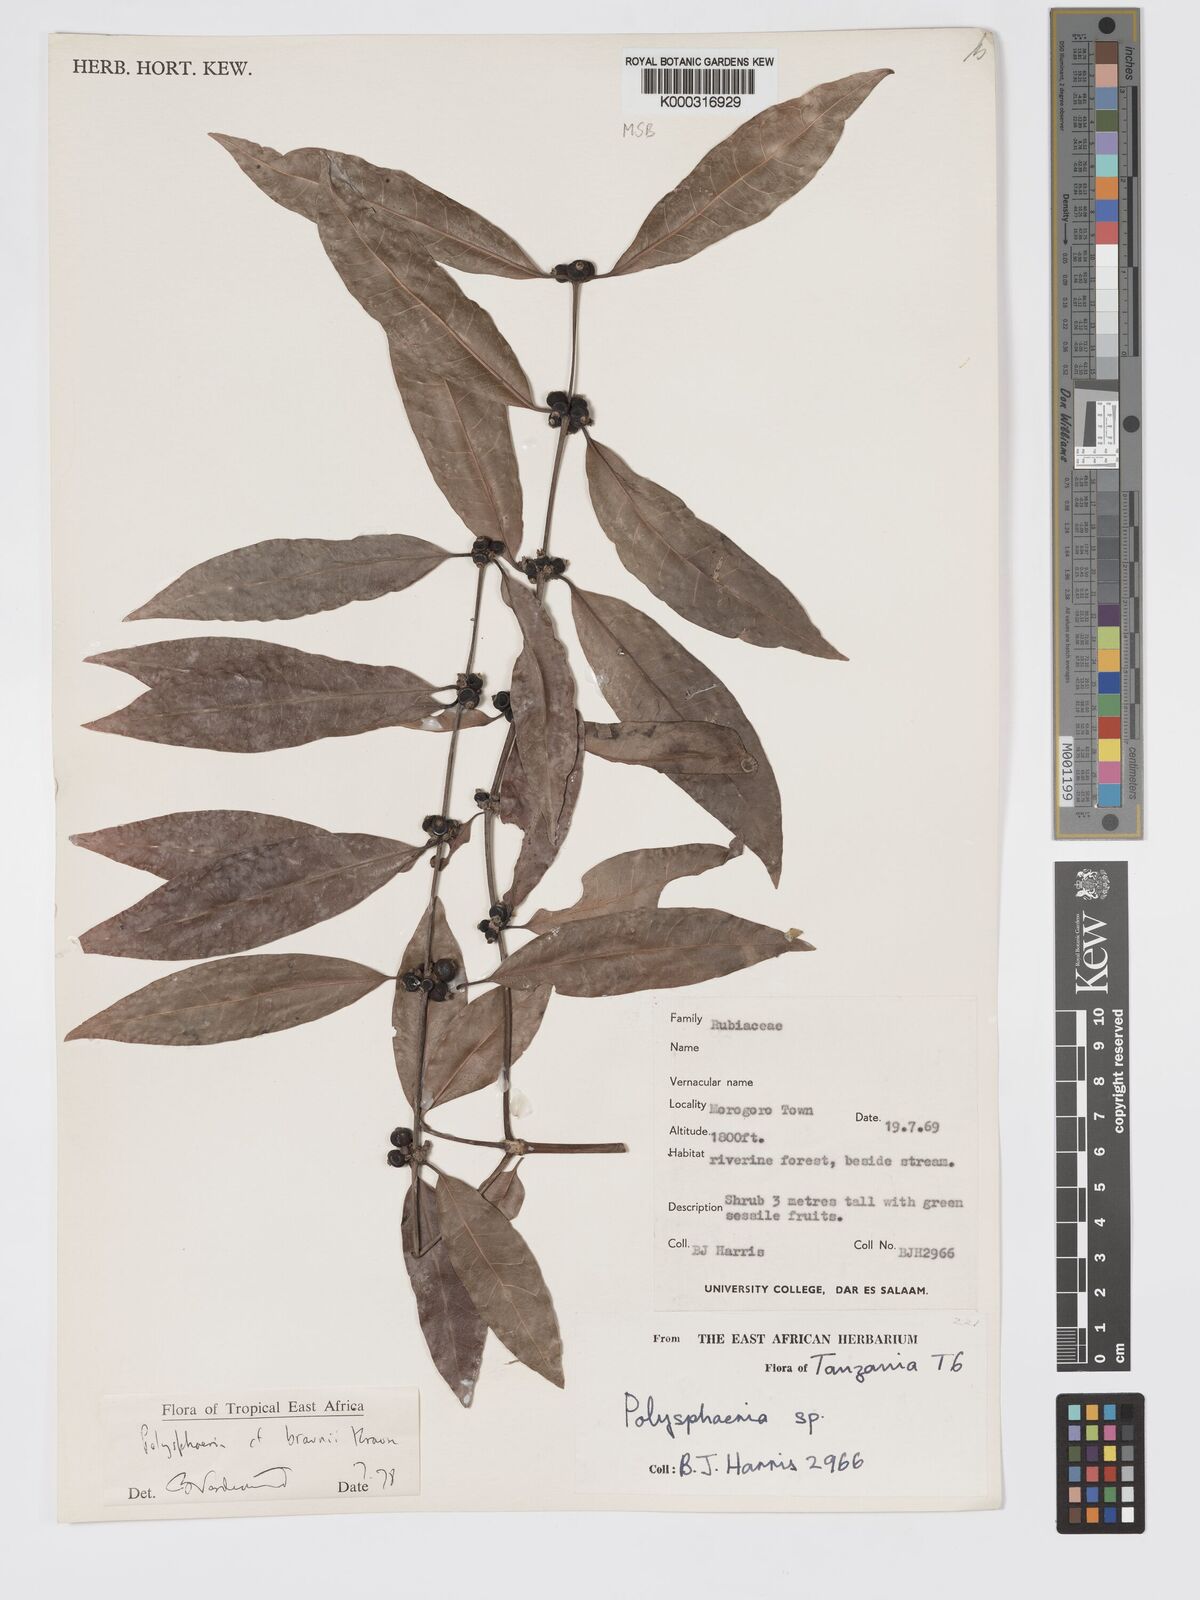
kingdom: Plantae
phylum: Tracheophyta
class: Magnoliopsida
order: Gentianales
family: Rubiaceae
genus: Polysphaeria
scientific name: Polysphaeria braunii
